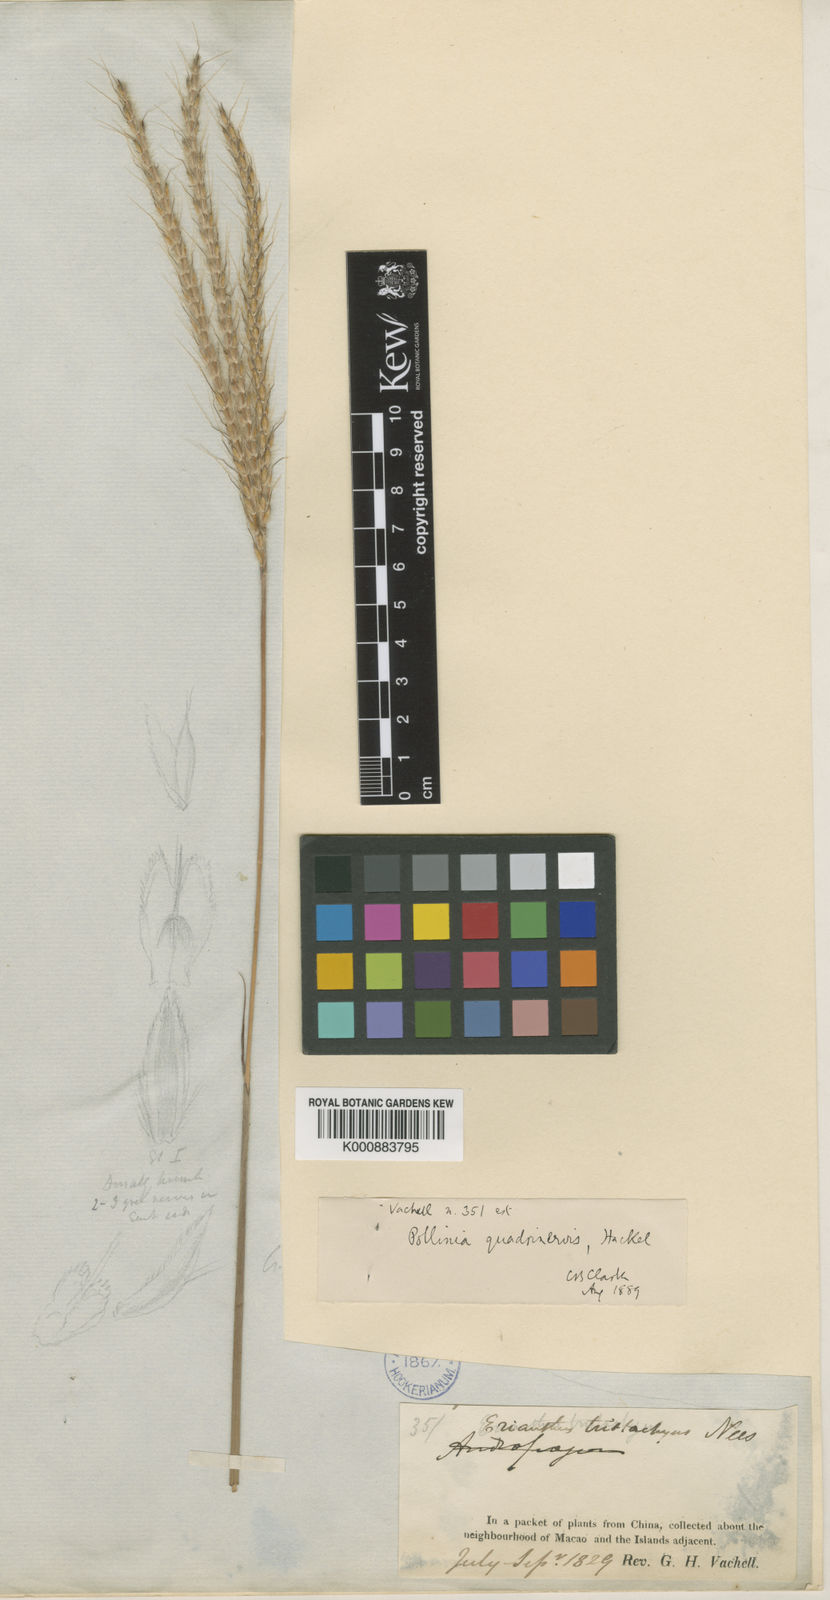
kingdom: Plantae
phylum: Tracheophyta
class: Liliopsida
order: Poales
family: Poaceae
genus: Pseudopogonatherum
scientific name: Pseudopogonatherum quadrinerve
